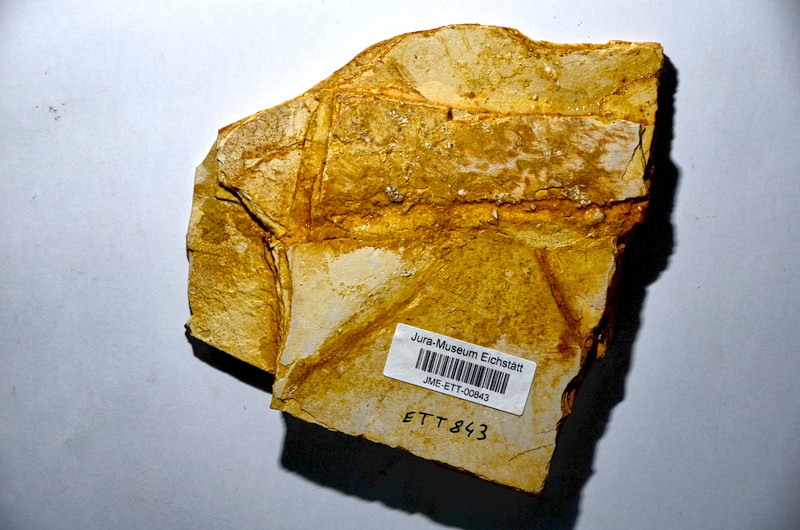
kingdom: Animalia
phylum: Chordata
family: Macrosemiidae
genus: Notagogus
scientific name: Notagogus denticulatus
